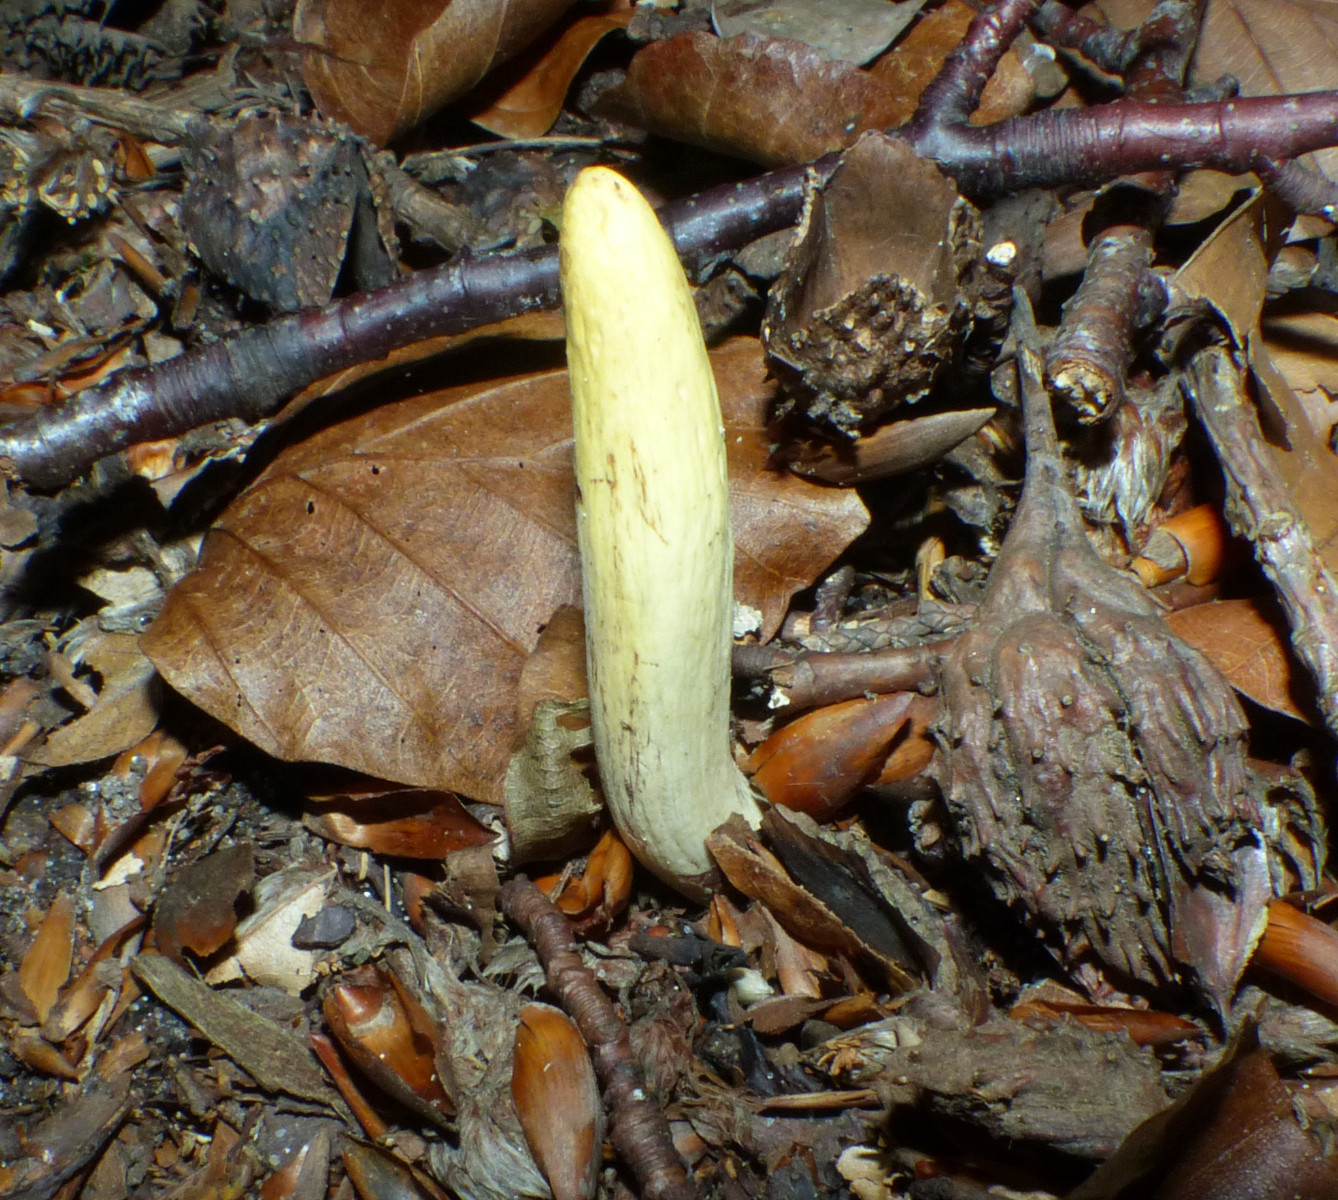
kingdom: Fungi
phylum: Basidiomycota
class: Agaricomycetes
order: Gomphales
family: Clavariadelphaceae
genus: Clavariadelphus
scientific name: Clavariadelphus pistillaris
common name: herkules-kæmpekølle
